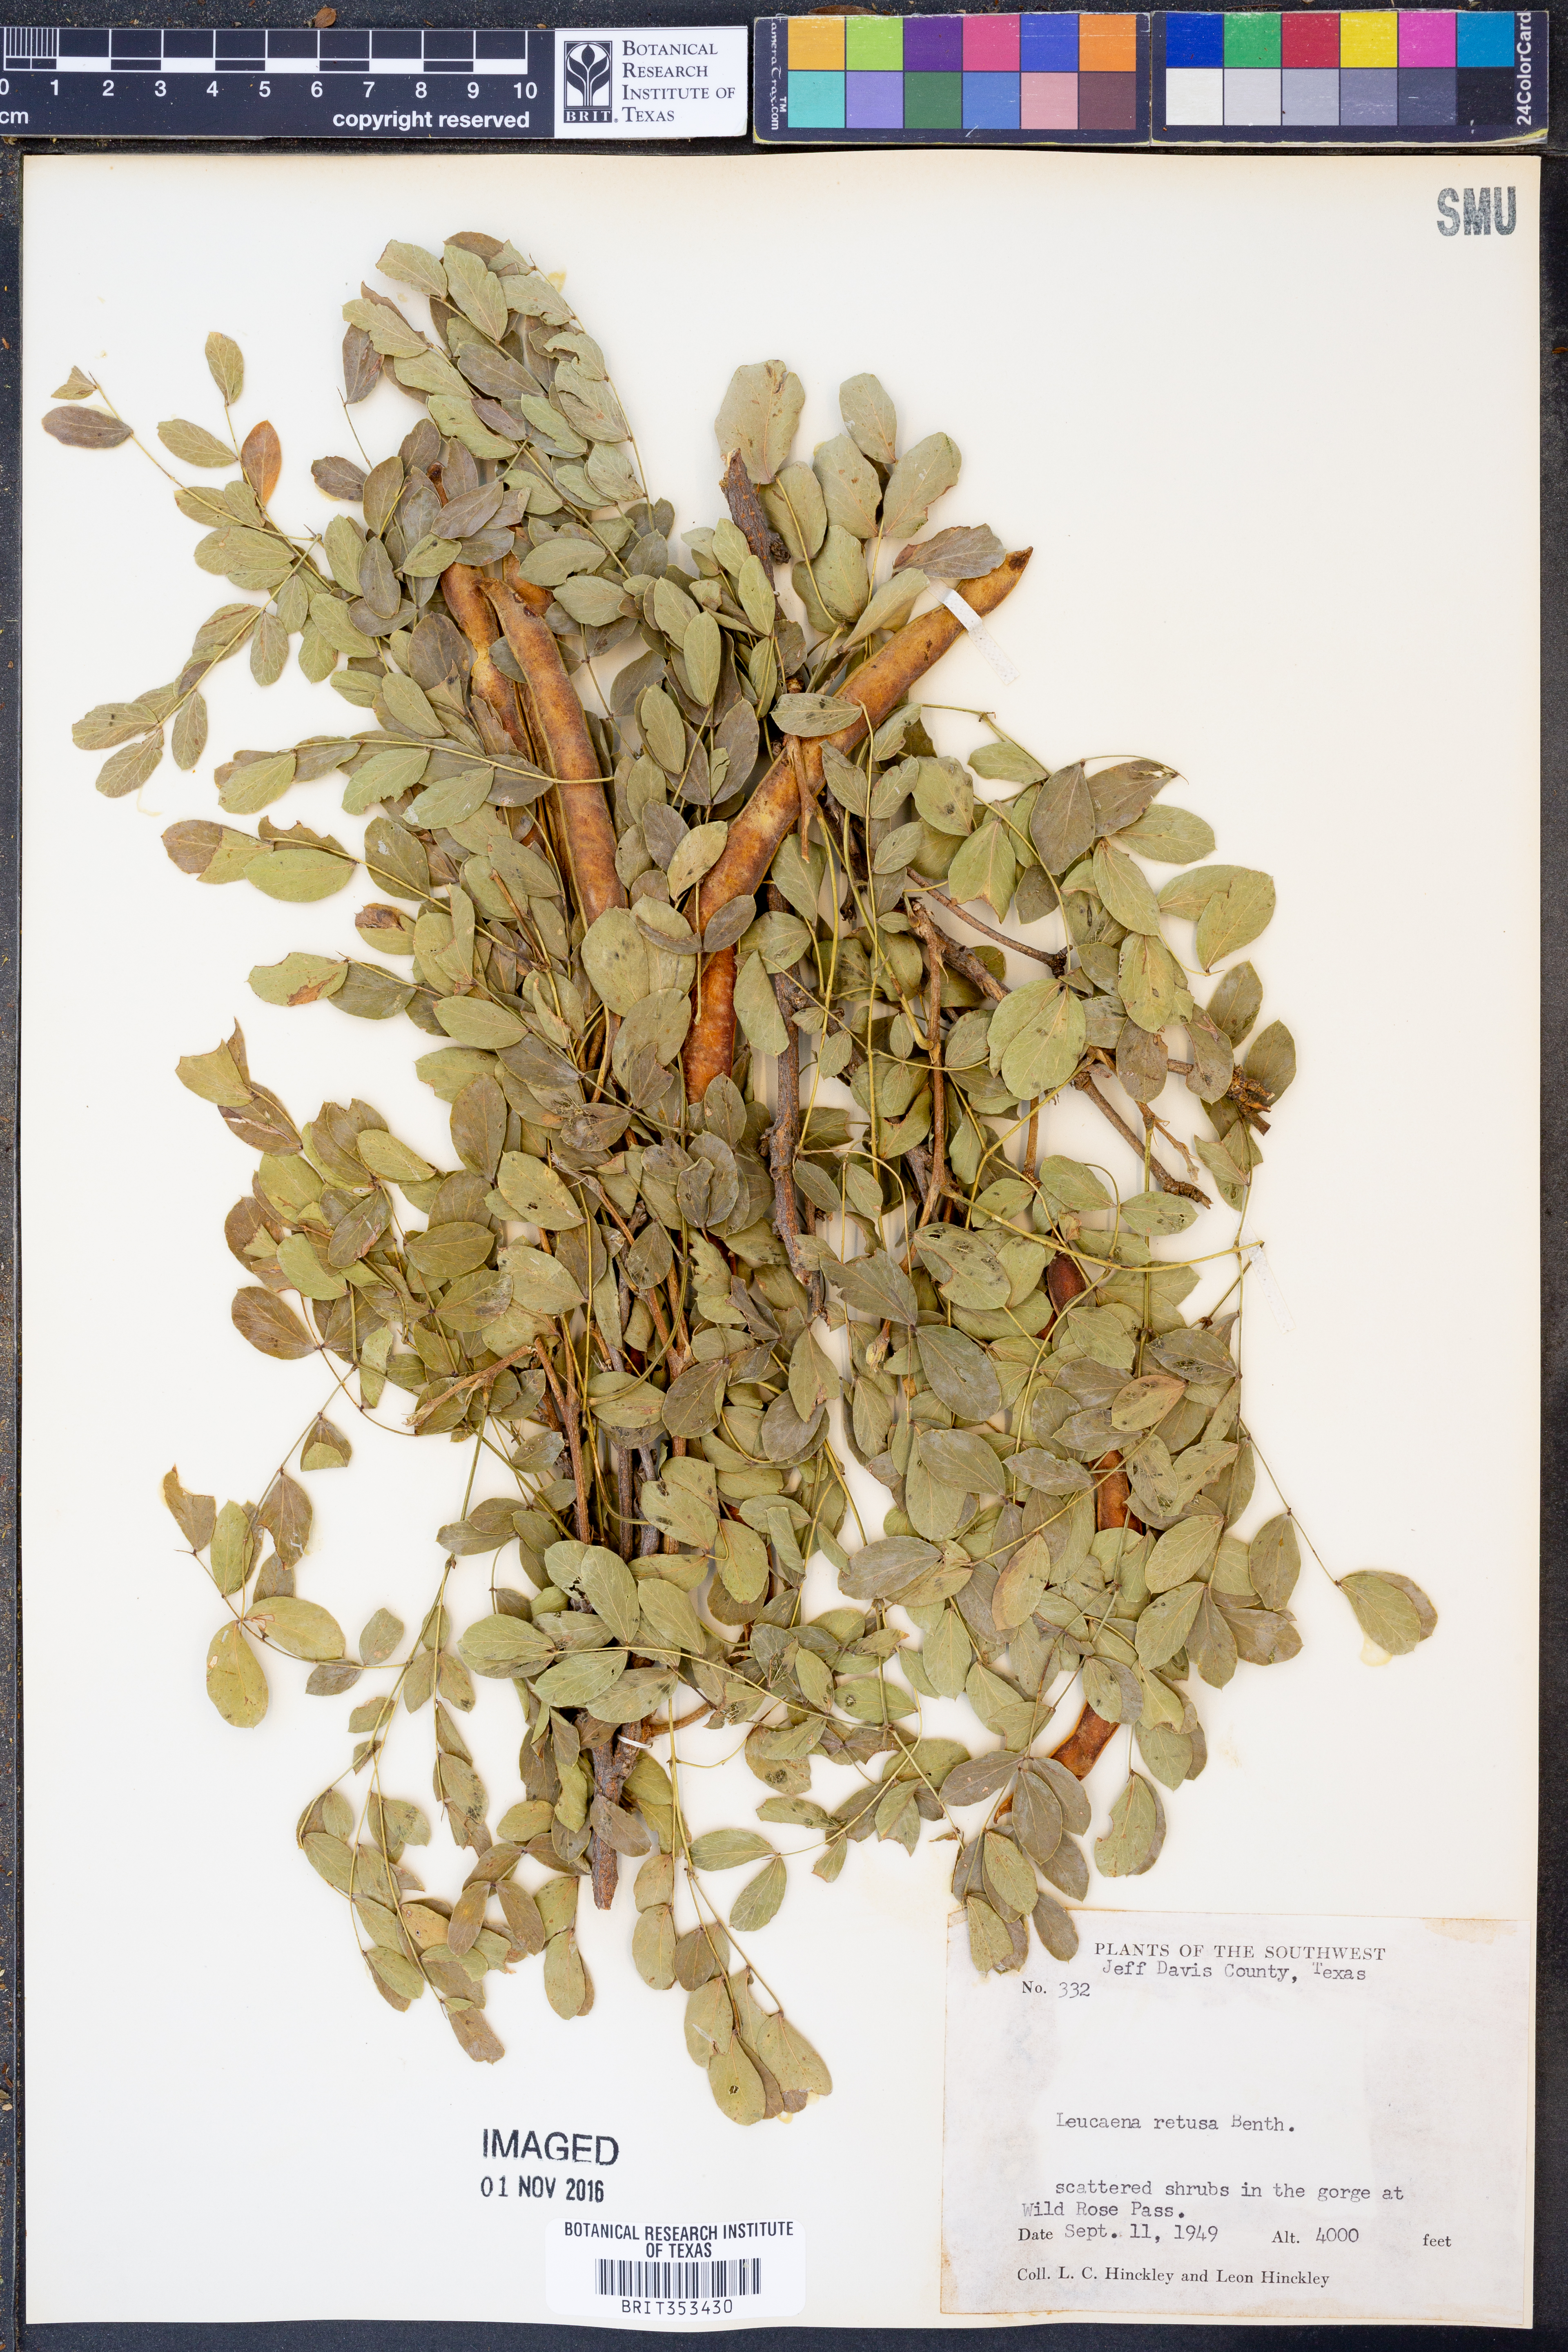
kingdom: Plantae
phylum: Tracheophyta
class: Magnoliopsida
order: Fabales
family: Fabaceae
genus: Leucaena
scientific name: Leucaena retusa
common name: Littleleaf leadtree
